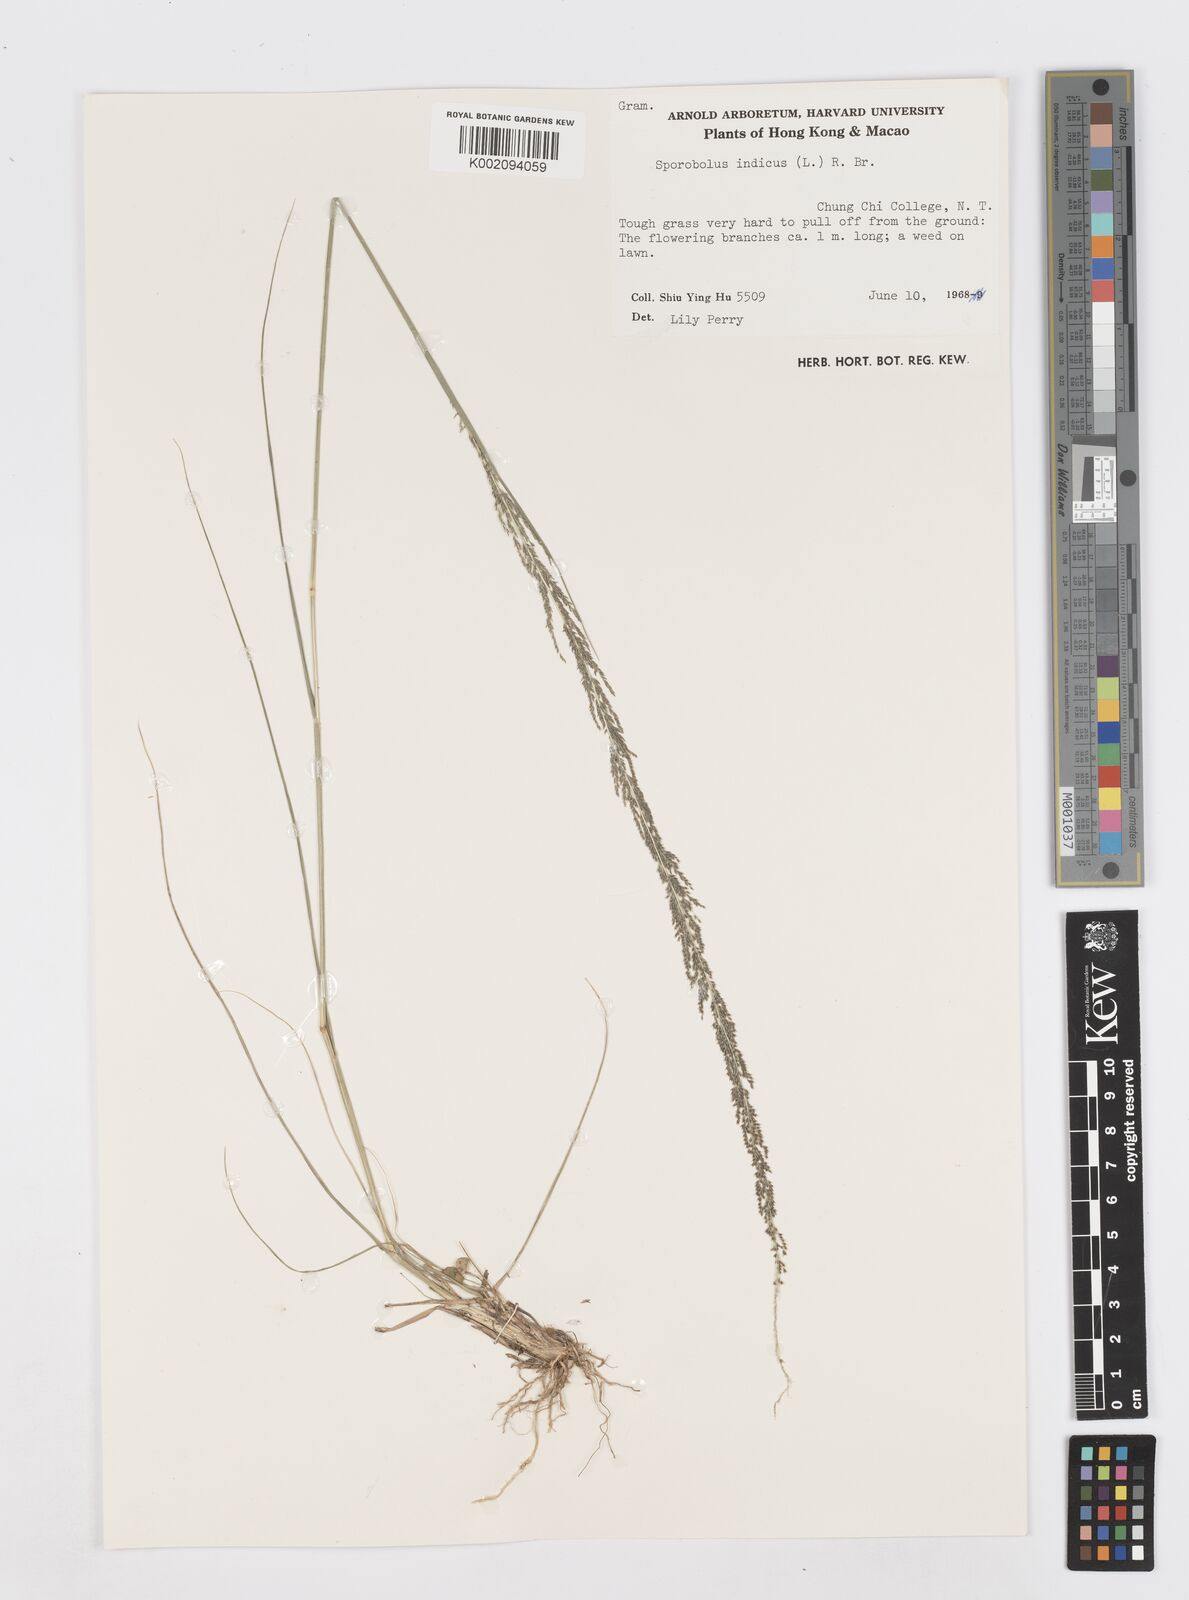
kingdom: Plantae
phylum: Tracheophyta
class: Liliopsida
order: Poales
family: Poaceae
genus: Sporobolus
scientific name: Sporobolus fertilis
